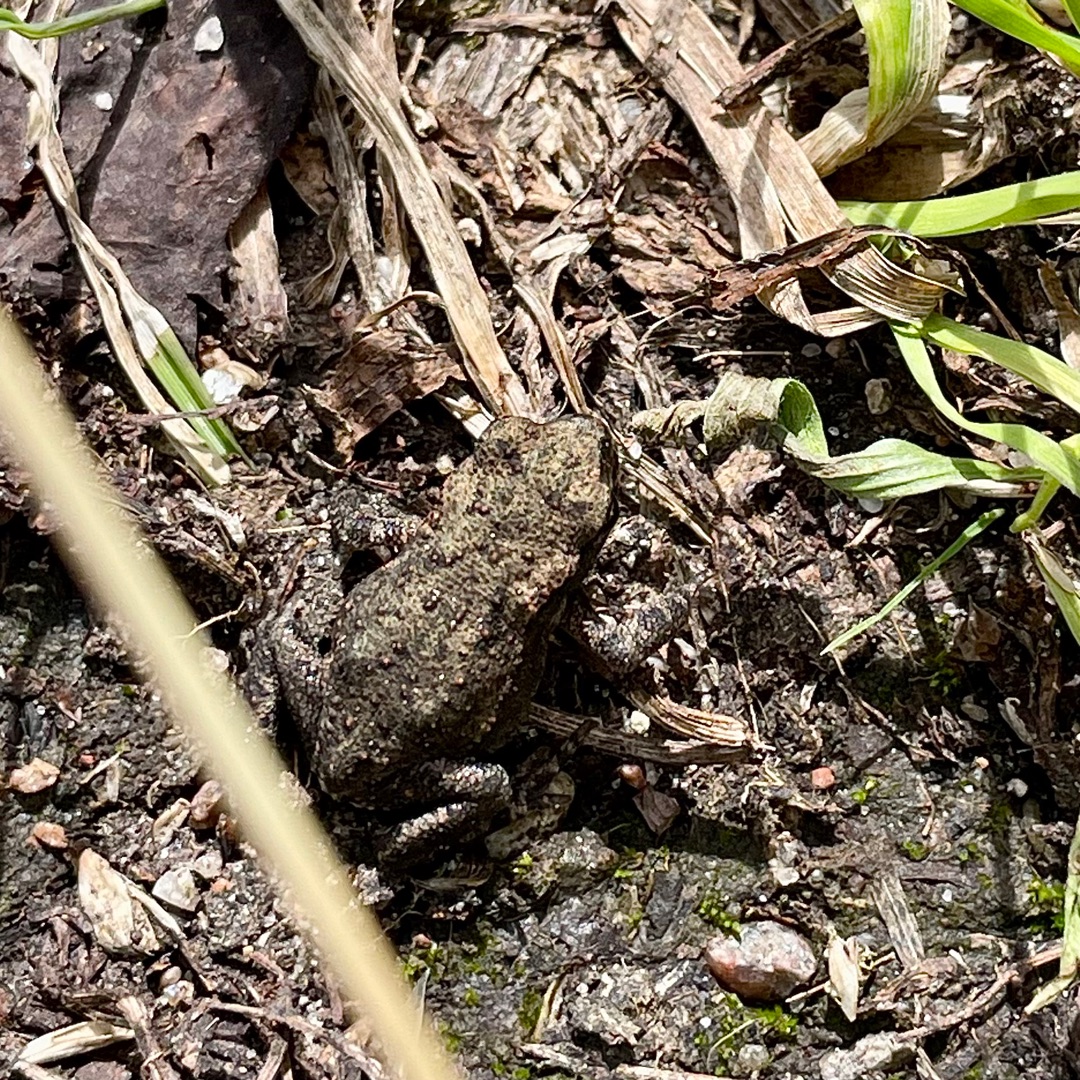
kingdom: Animalia
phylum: Chordata
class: Amphibia
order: Anura
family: Bufonidae
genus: Bufo
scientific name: Bufo bufo
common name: Skrubtudse
